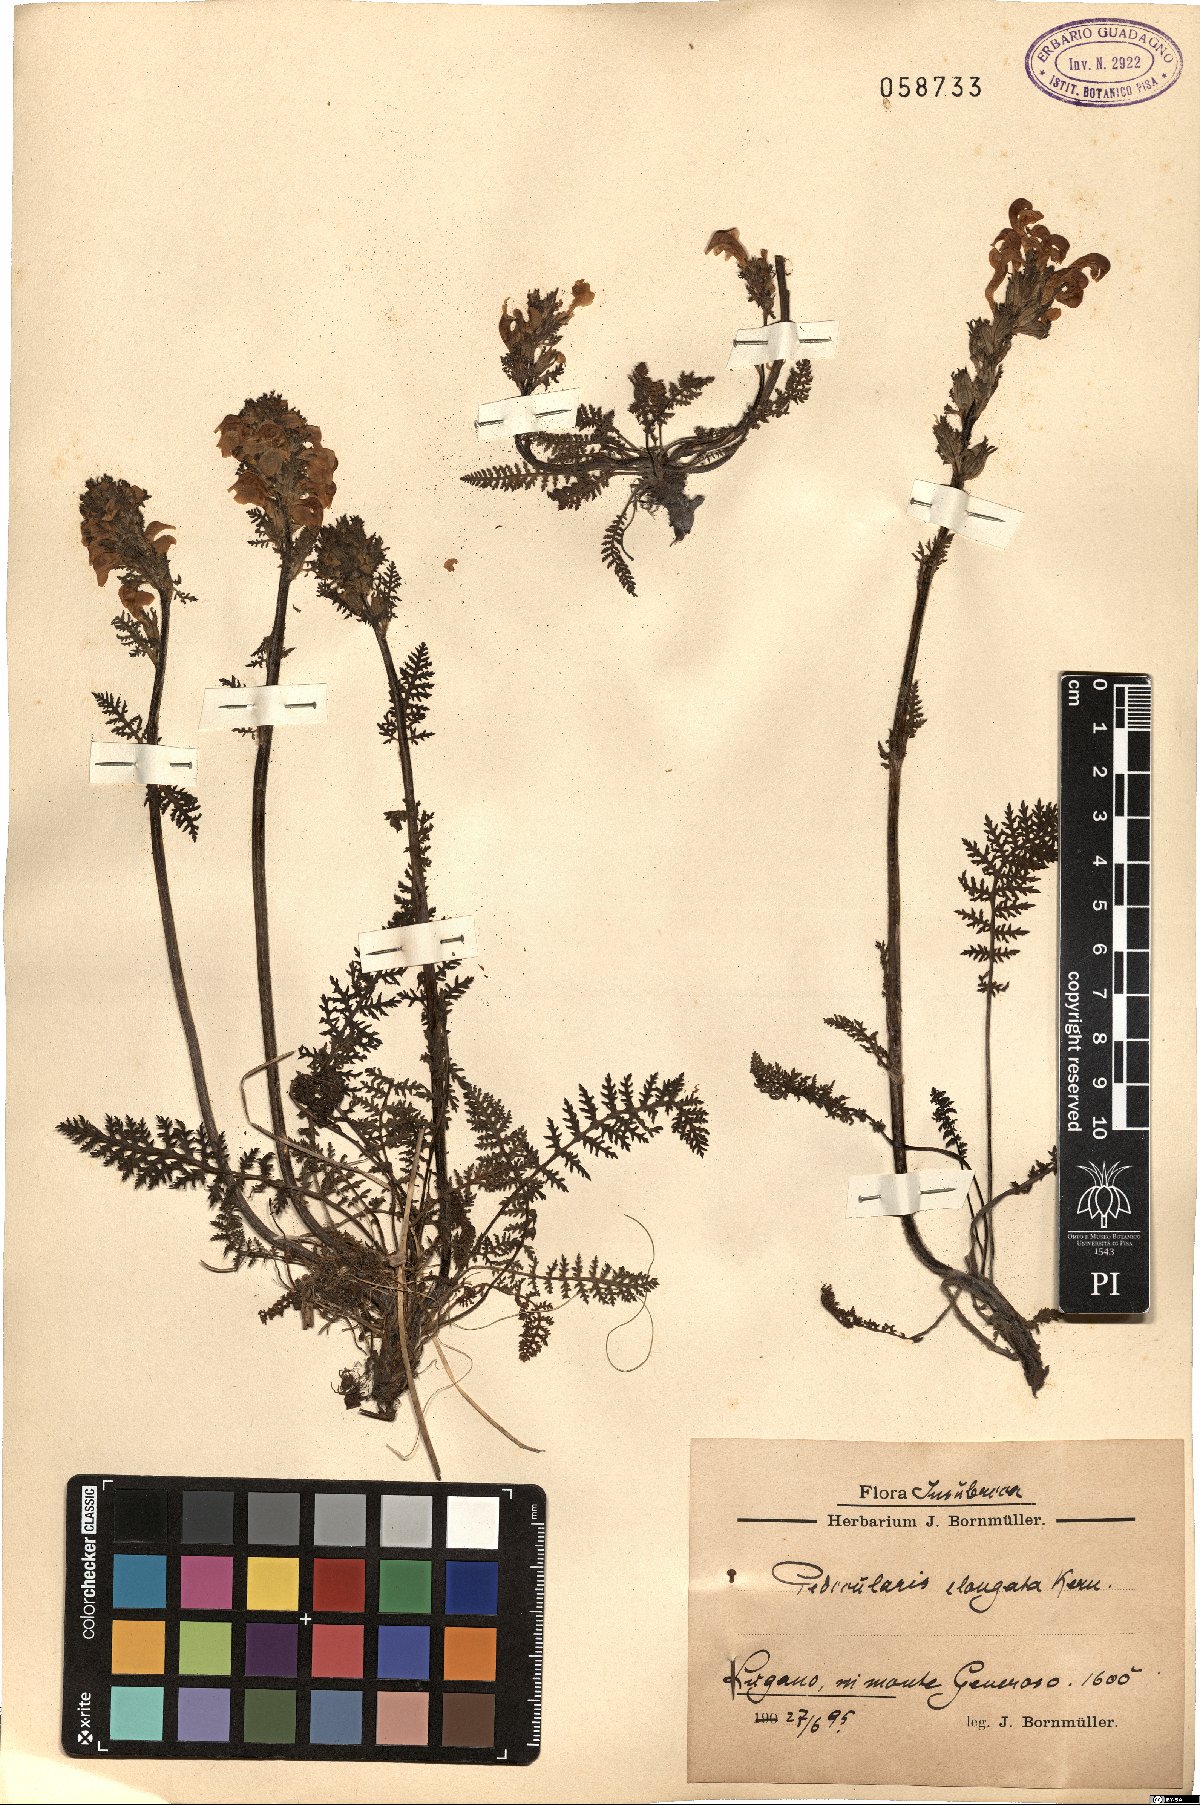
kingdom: Plantae
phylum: Tracheophyta
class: Magnoliopsida
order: Lamiales
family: Orobanchaceae
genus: Pedicularis
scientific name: Pedicularis elongata
